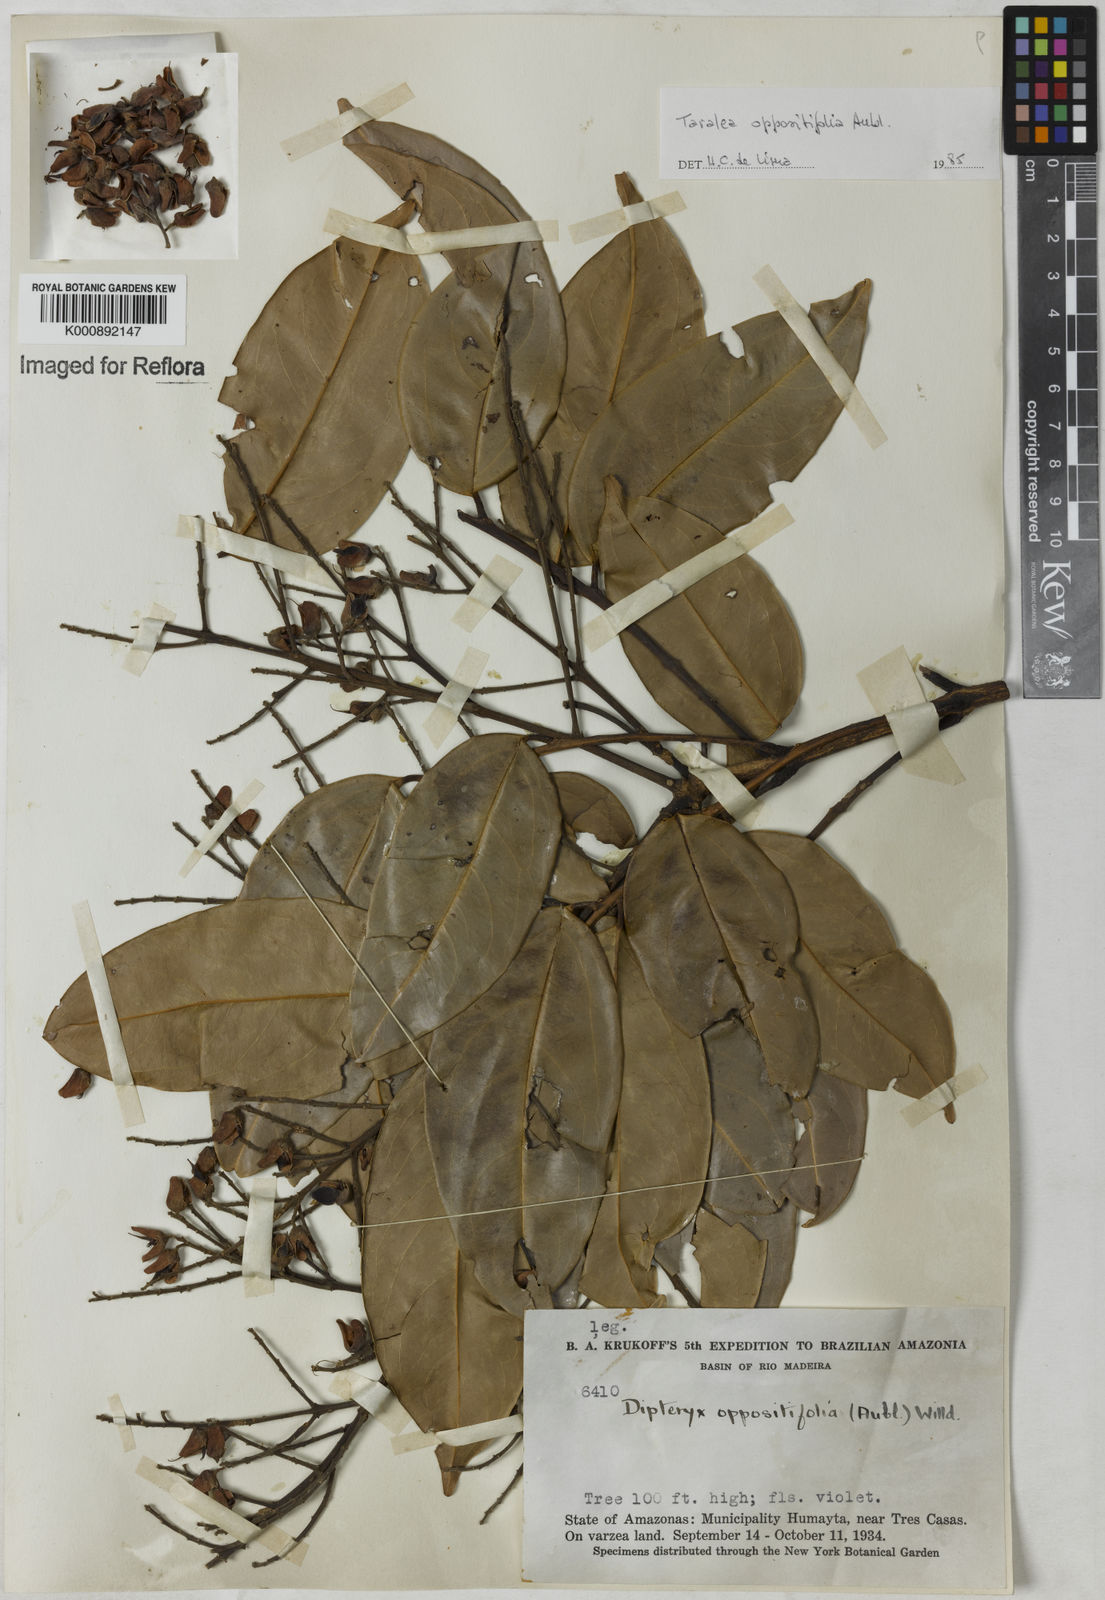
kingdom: Plantae
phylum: Tracheophyta
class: Magnoliopsida
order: Fabales
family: Fabaceae
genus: Taralea
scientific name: Taralea oppositifolia
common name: Tonka
